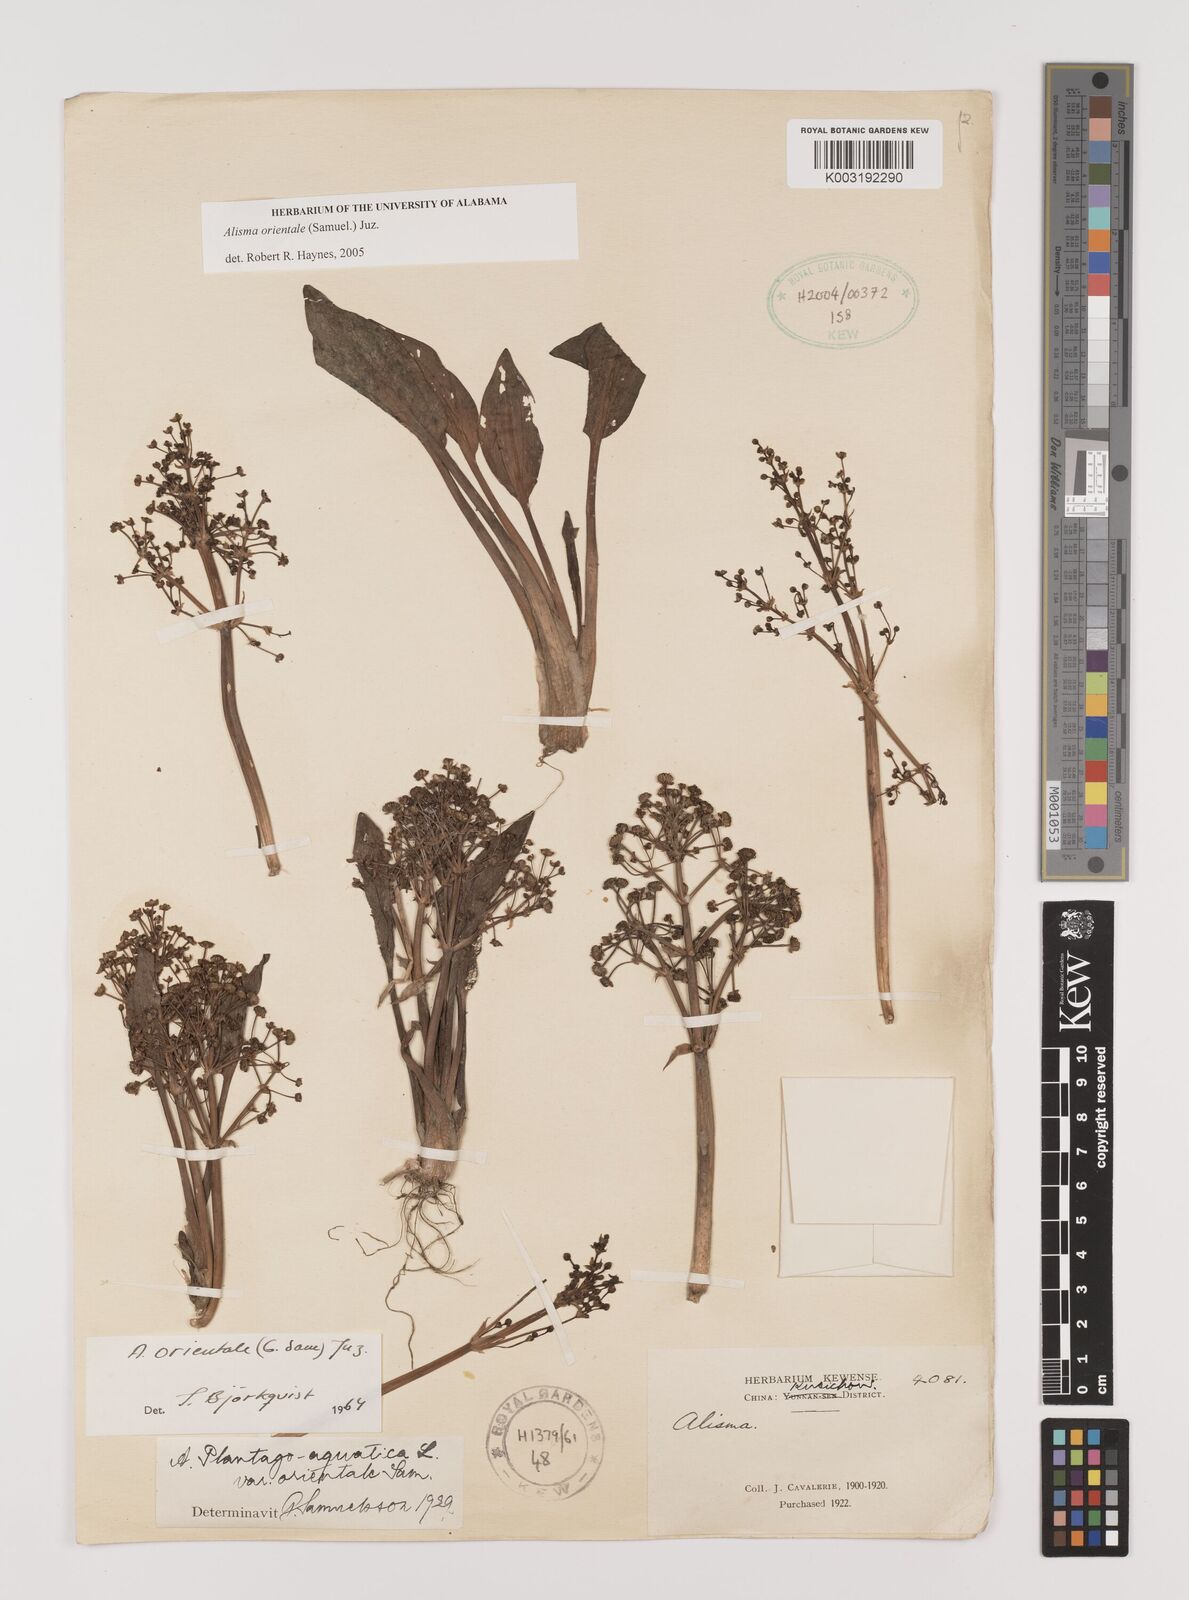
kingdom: Plantae
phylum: Tracheophyta
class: Liliopsida
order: Alismatales
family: Alismataceae
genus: Alisma
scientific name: Alisma plantago-aquatica
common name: Water-plantain
